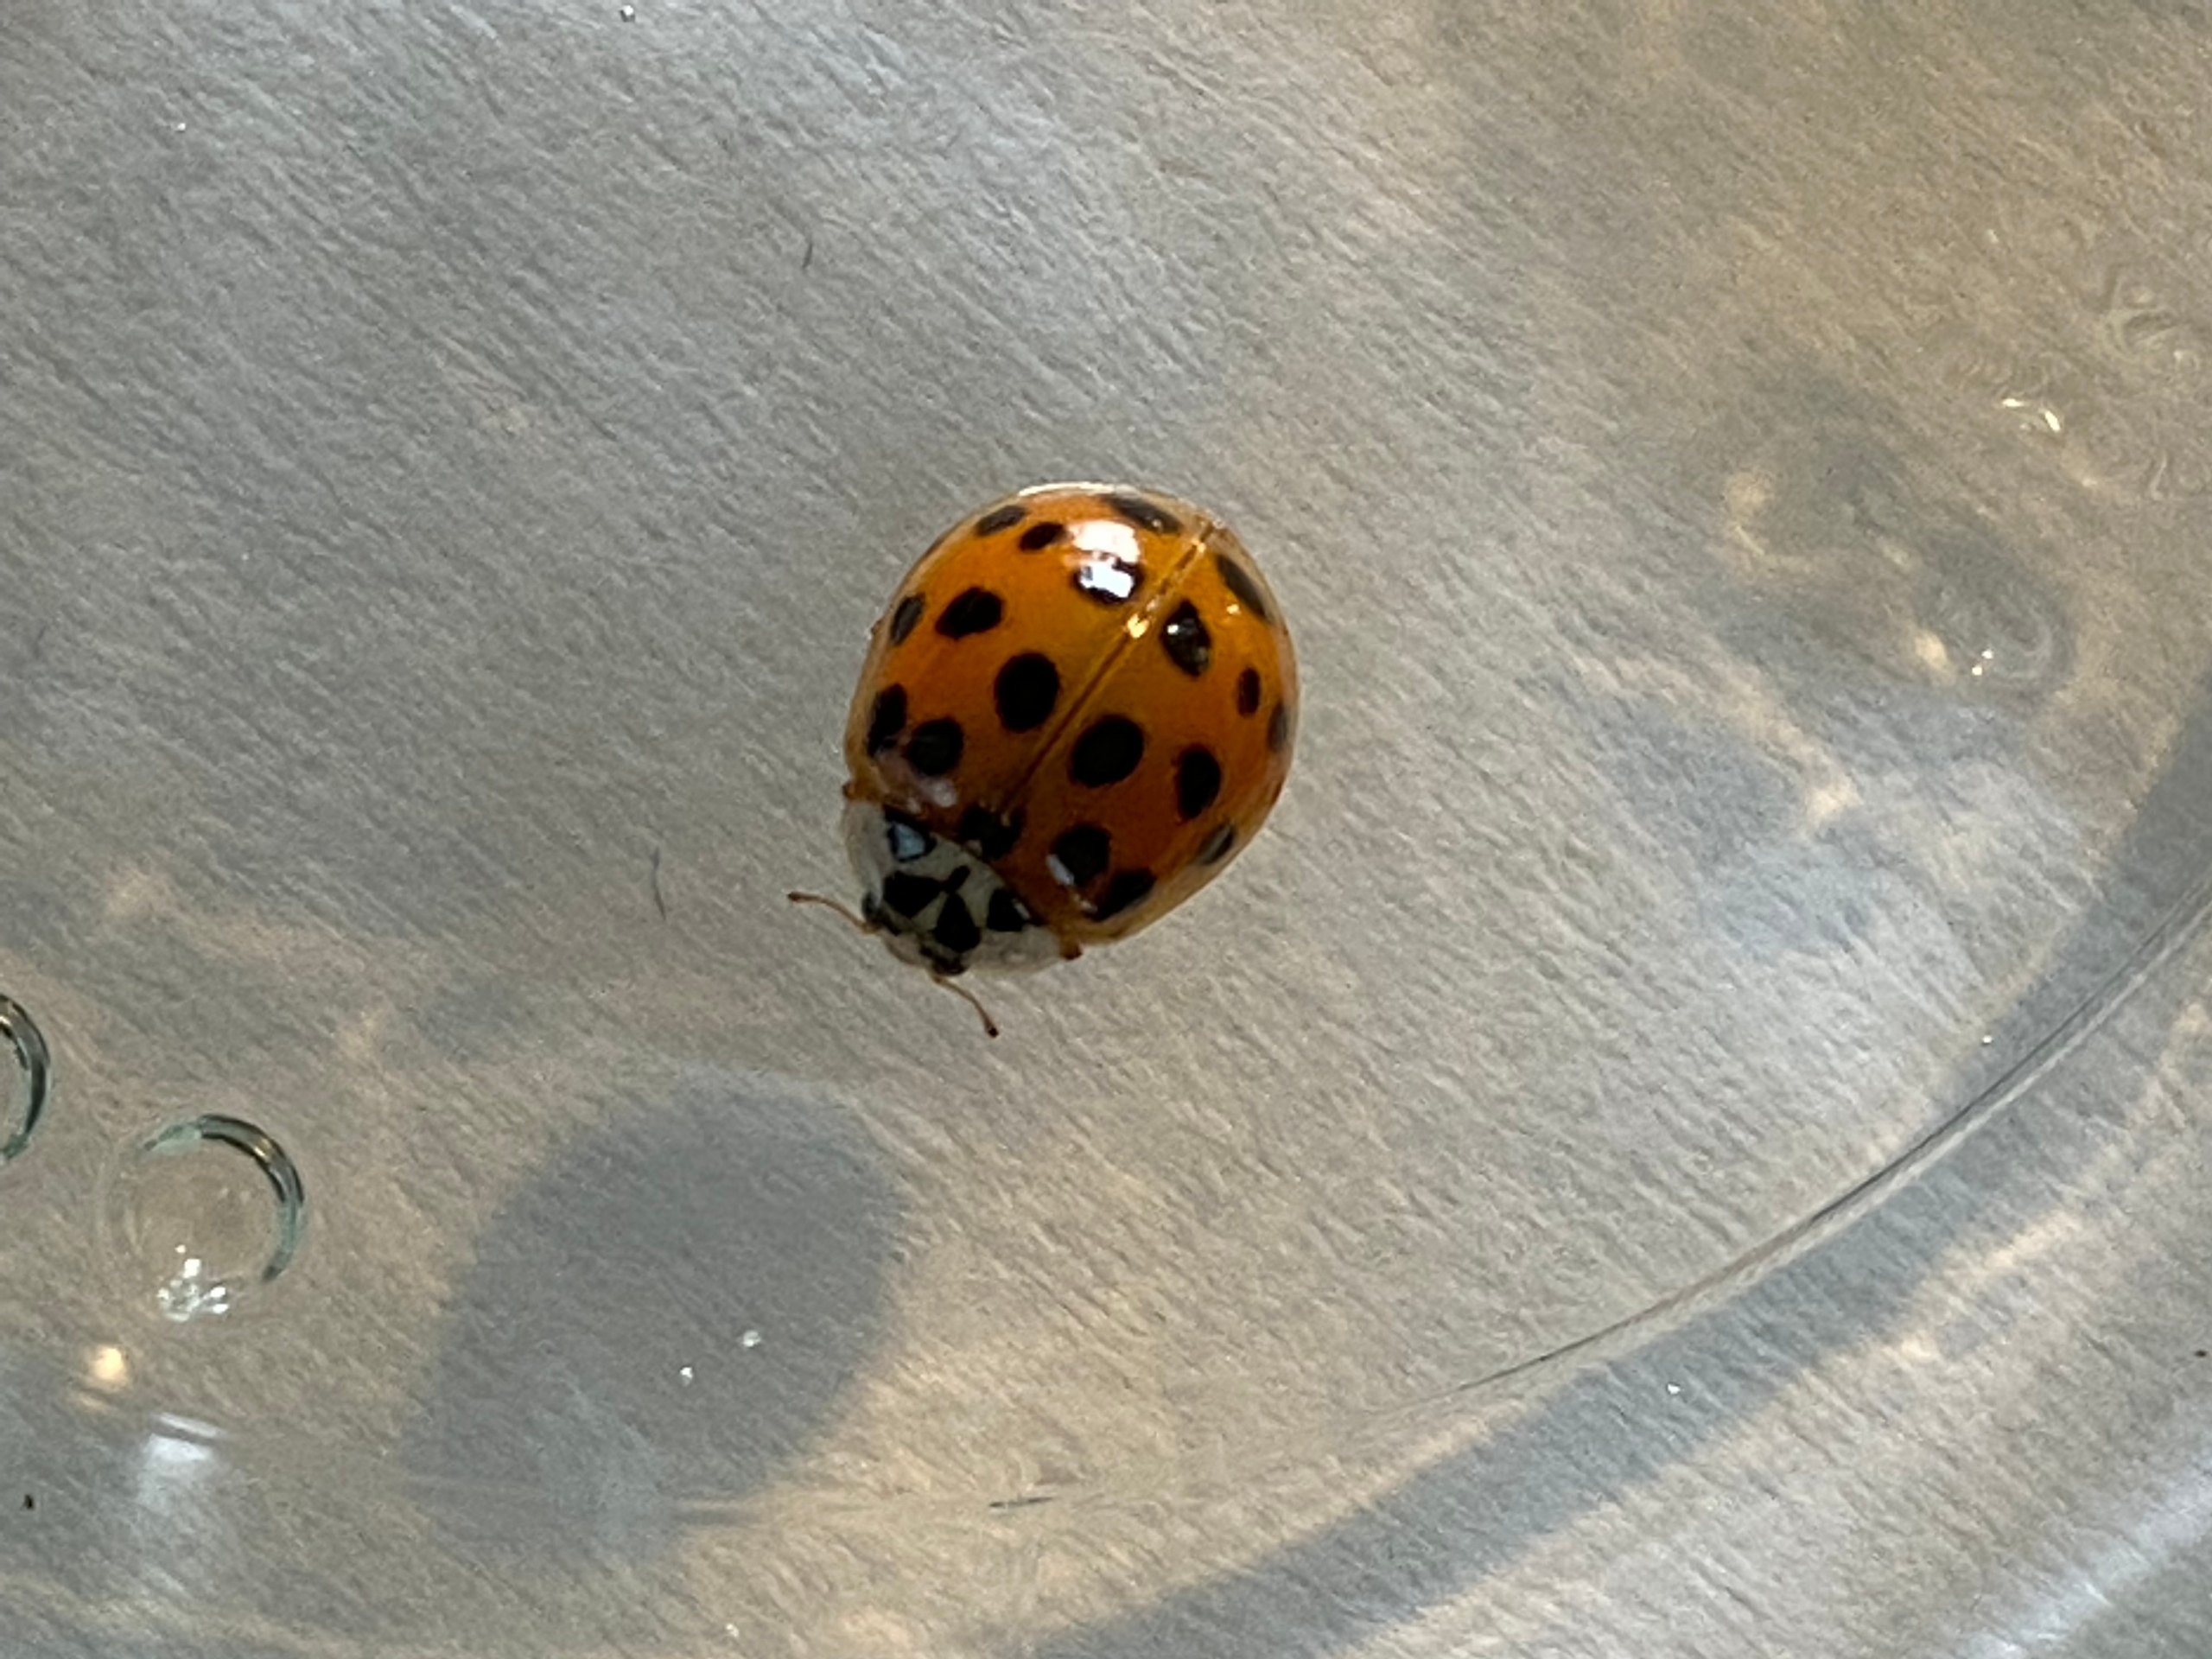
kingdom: Animalia
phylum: Arthropoda
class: Insecta
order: Coleoptera
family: Coccinellidae
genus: Harmonia
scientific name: Harmonia axyridis
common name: Harlekinmariehøne
